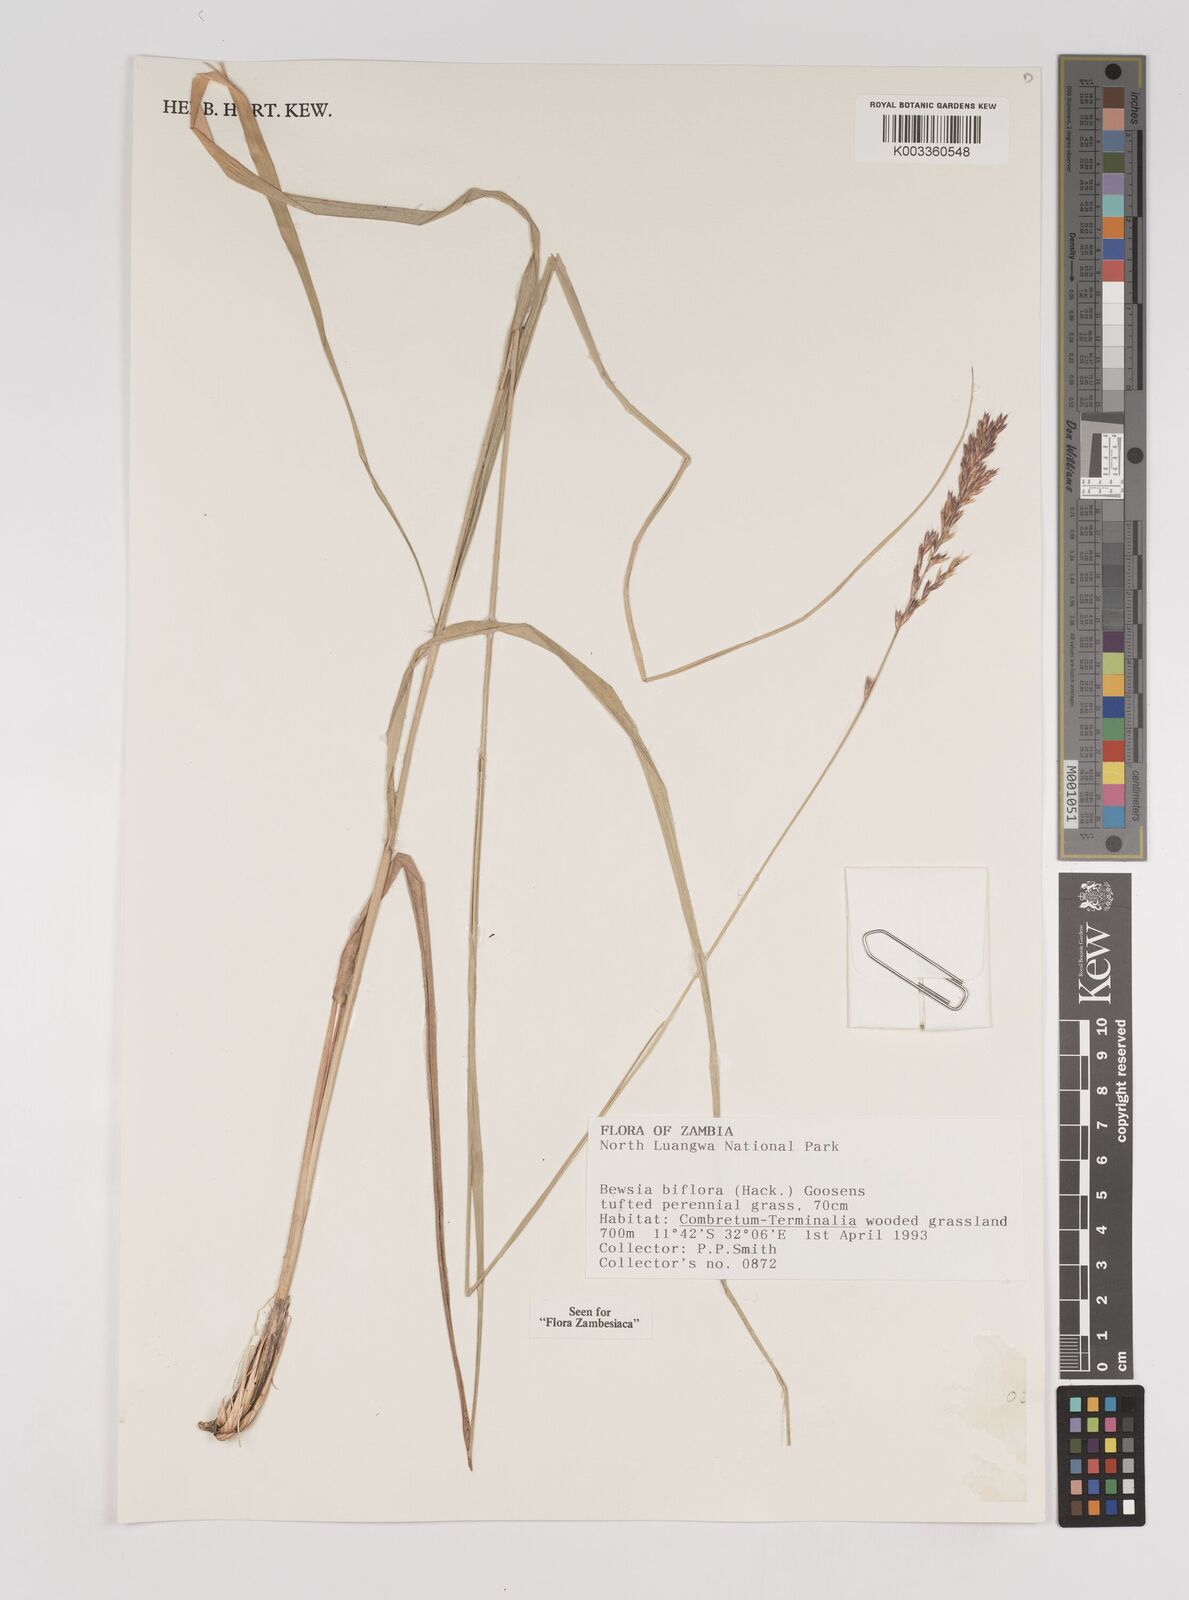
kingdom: Plantae
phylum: Tracheophyta
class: Liliopsida
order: Poales
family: Poaceae
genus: Bewsia
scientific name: Bewsia biflora
